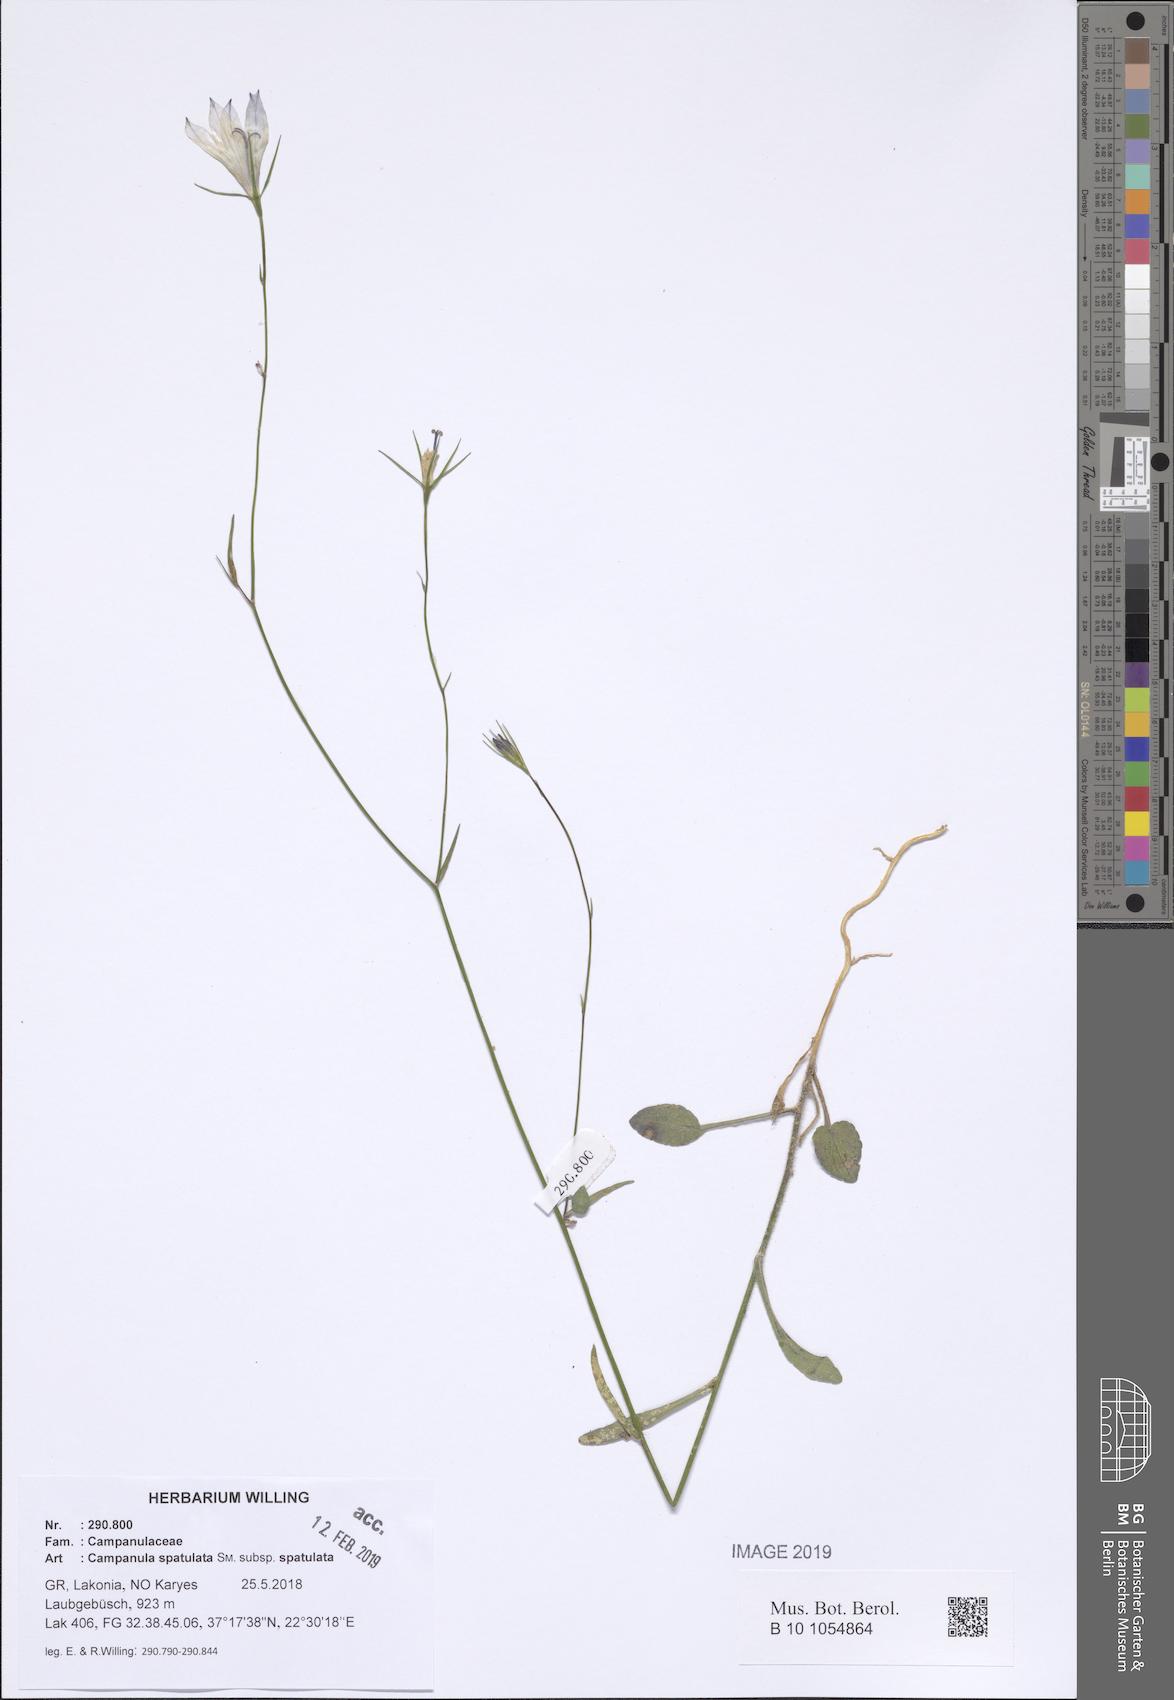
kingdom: Plantae
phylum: Tracheophyta
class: Magnoliopsida
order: Asterales
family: Campanulaceae
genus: Campanula
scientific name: Campanula spatulata
